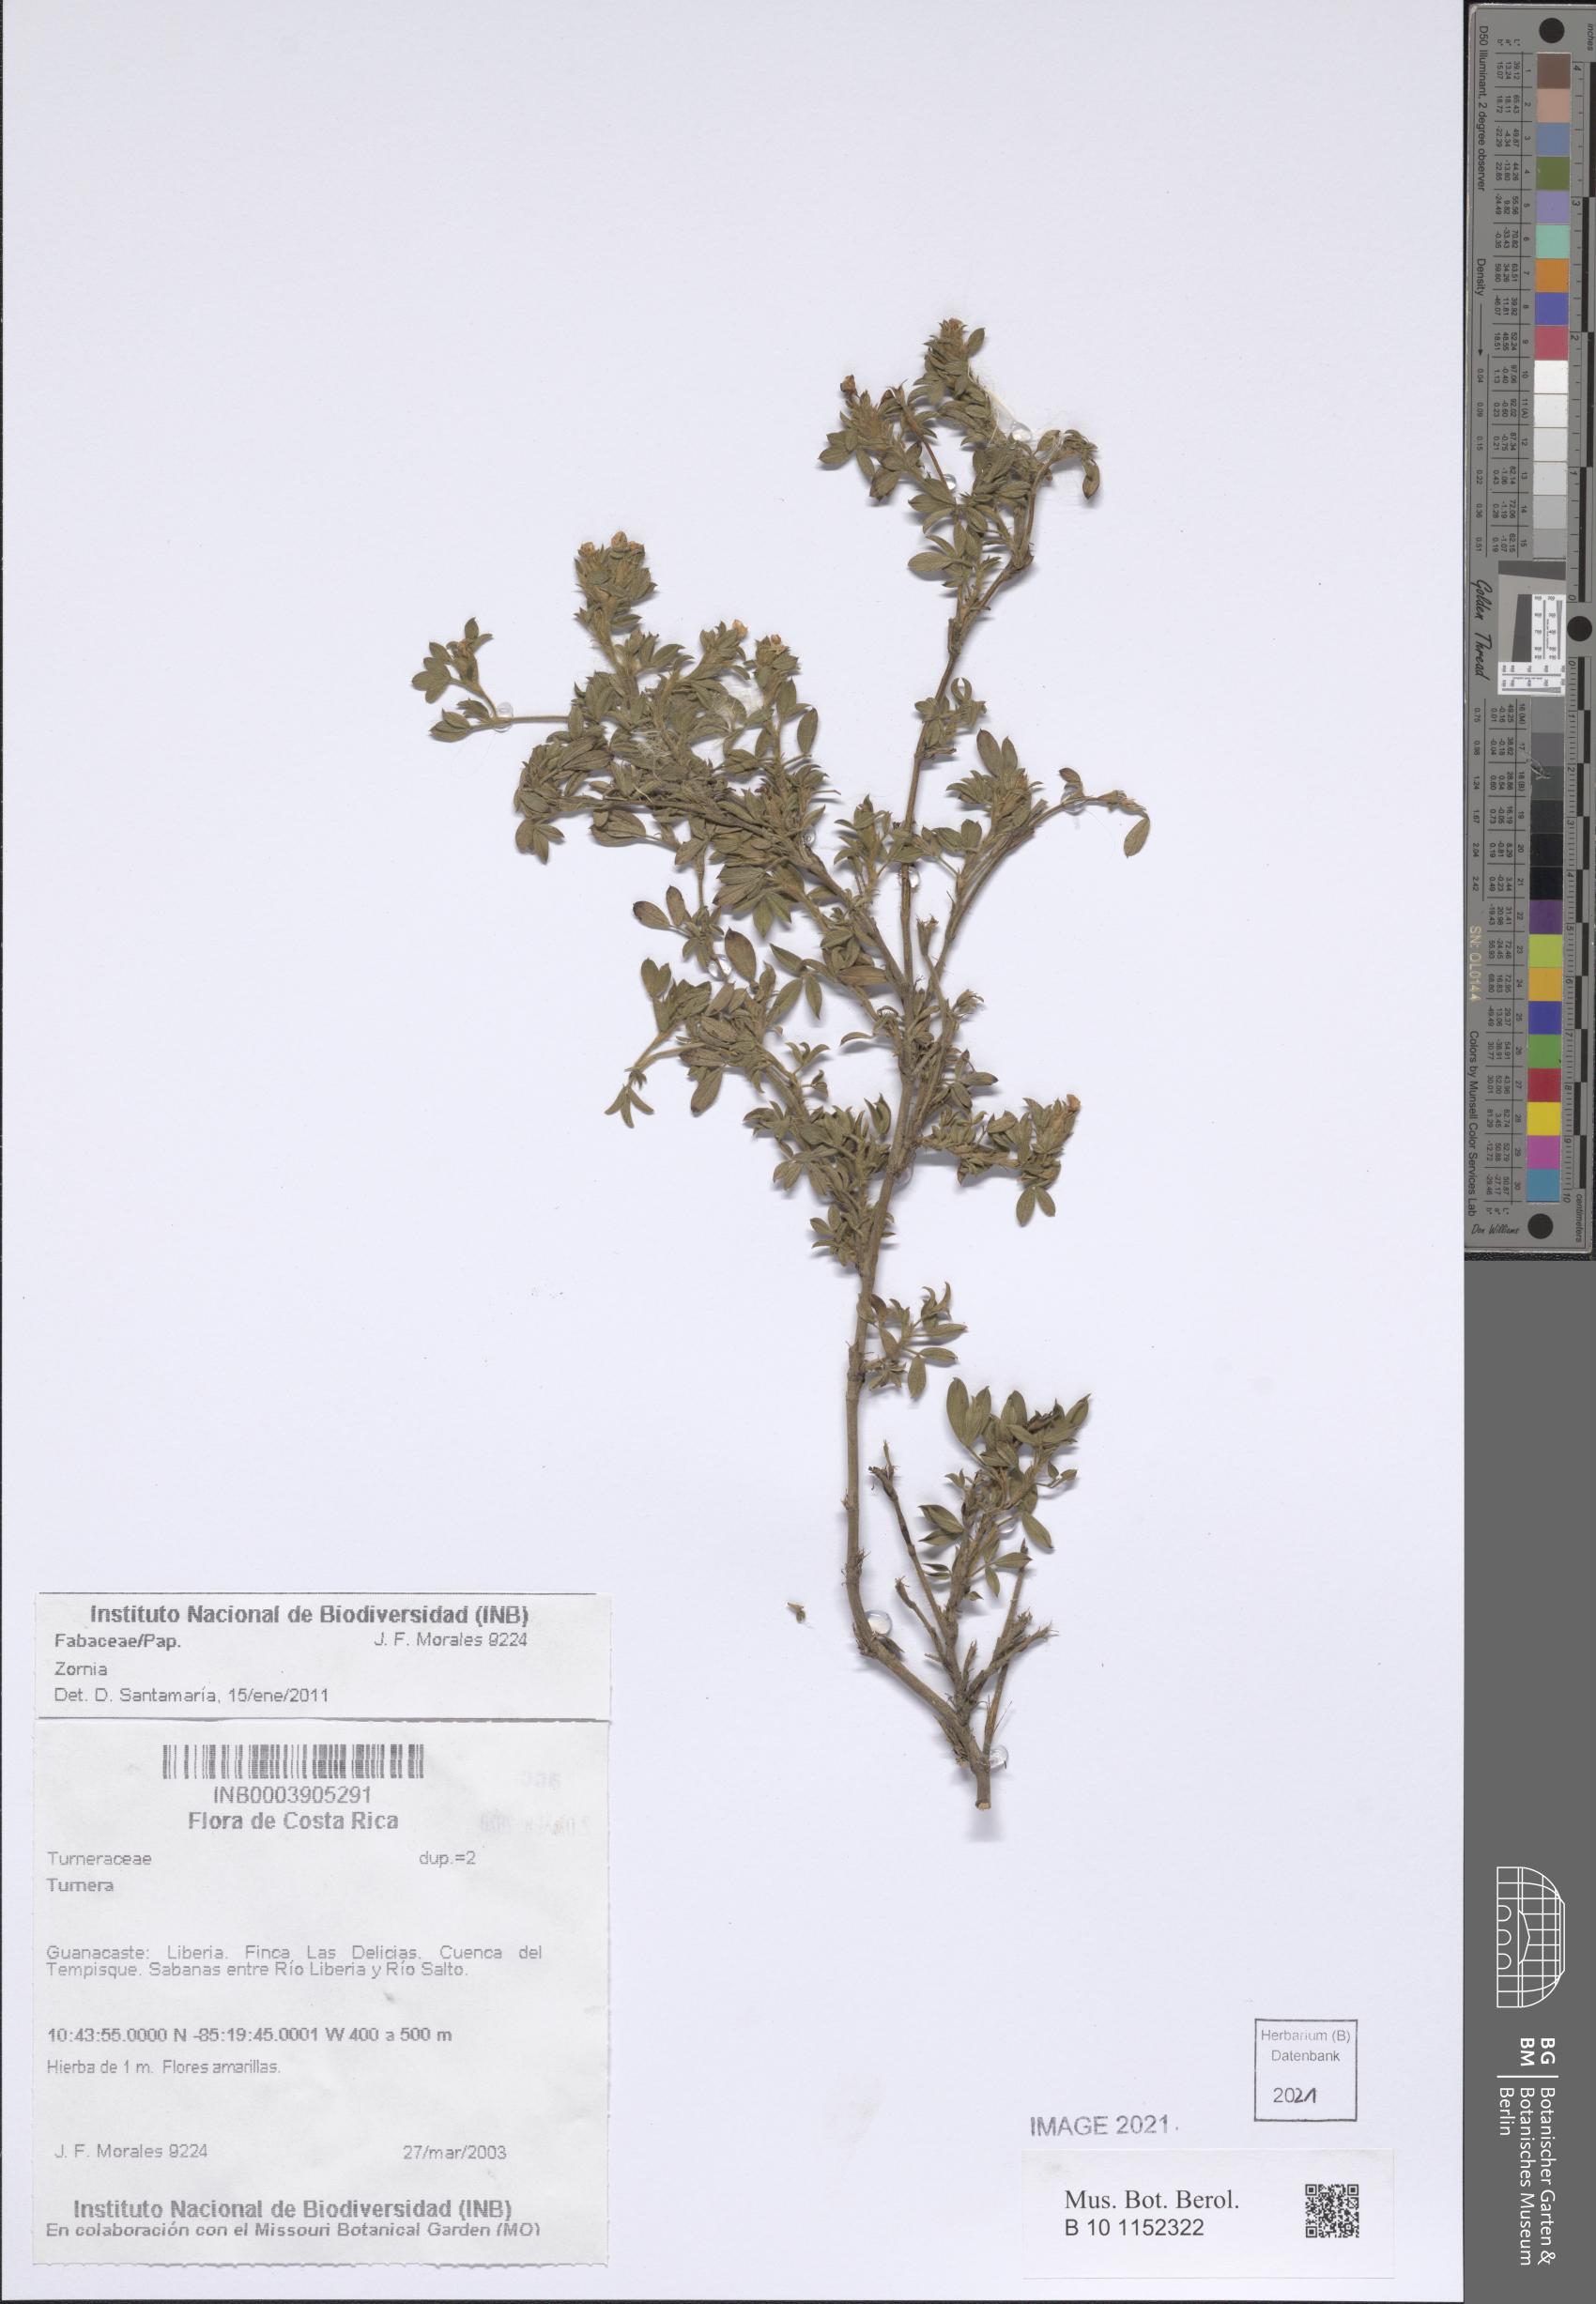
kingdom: Plantae
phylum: Tracheophyta
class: Magnoliopsida
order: Fabales
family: Fabaceae
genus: Zornia
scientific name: Zornia
